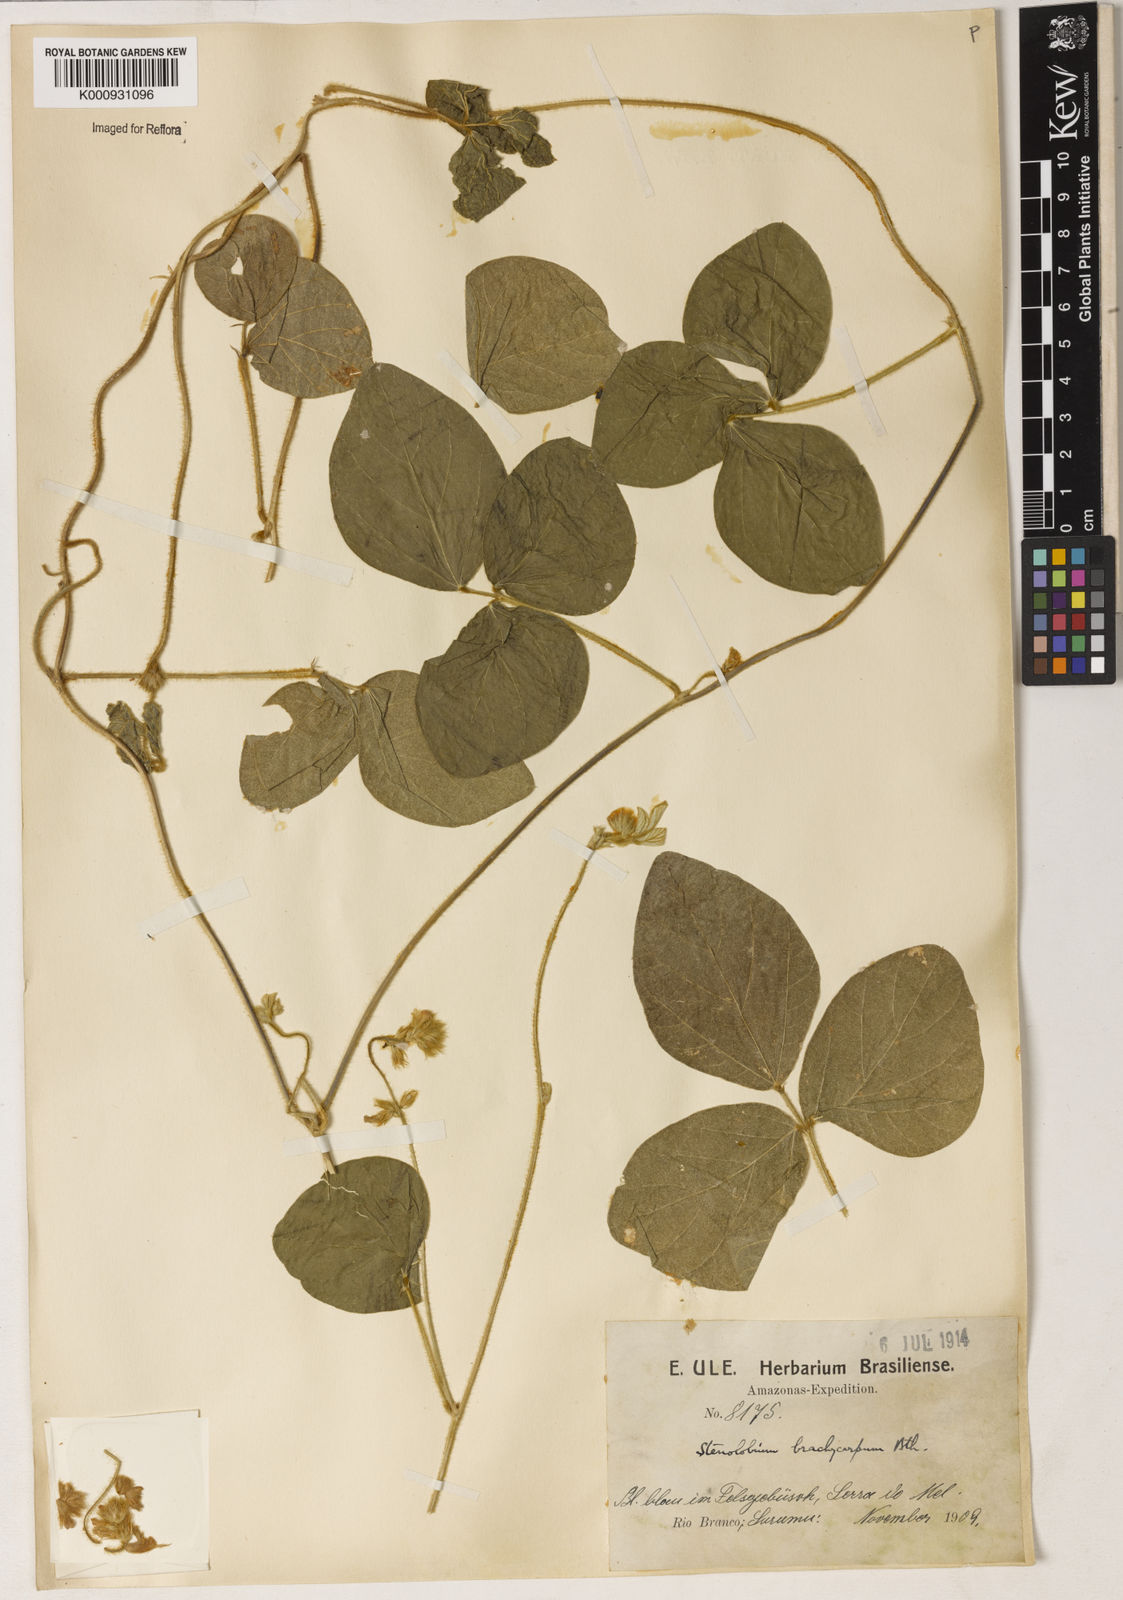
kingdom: Plantae
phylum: Tracheophyta
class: Magnoliopsida
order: Fabales
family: Fabaceae
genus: Calopogonium
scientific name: Calopogonium mucunoides
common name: Calopo
